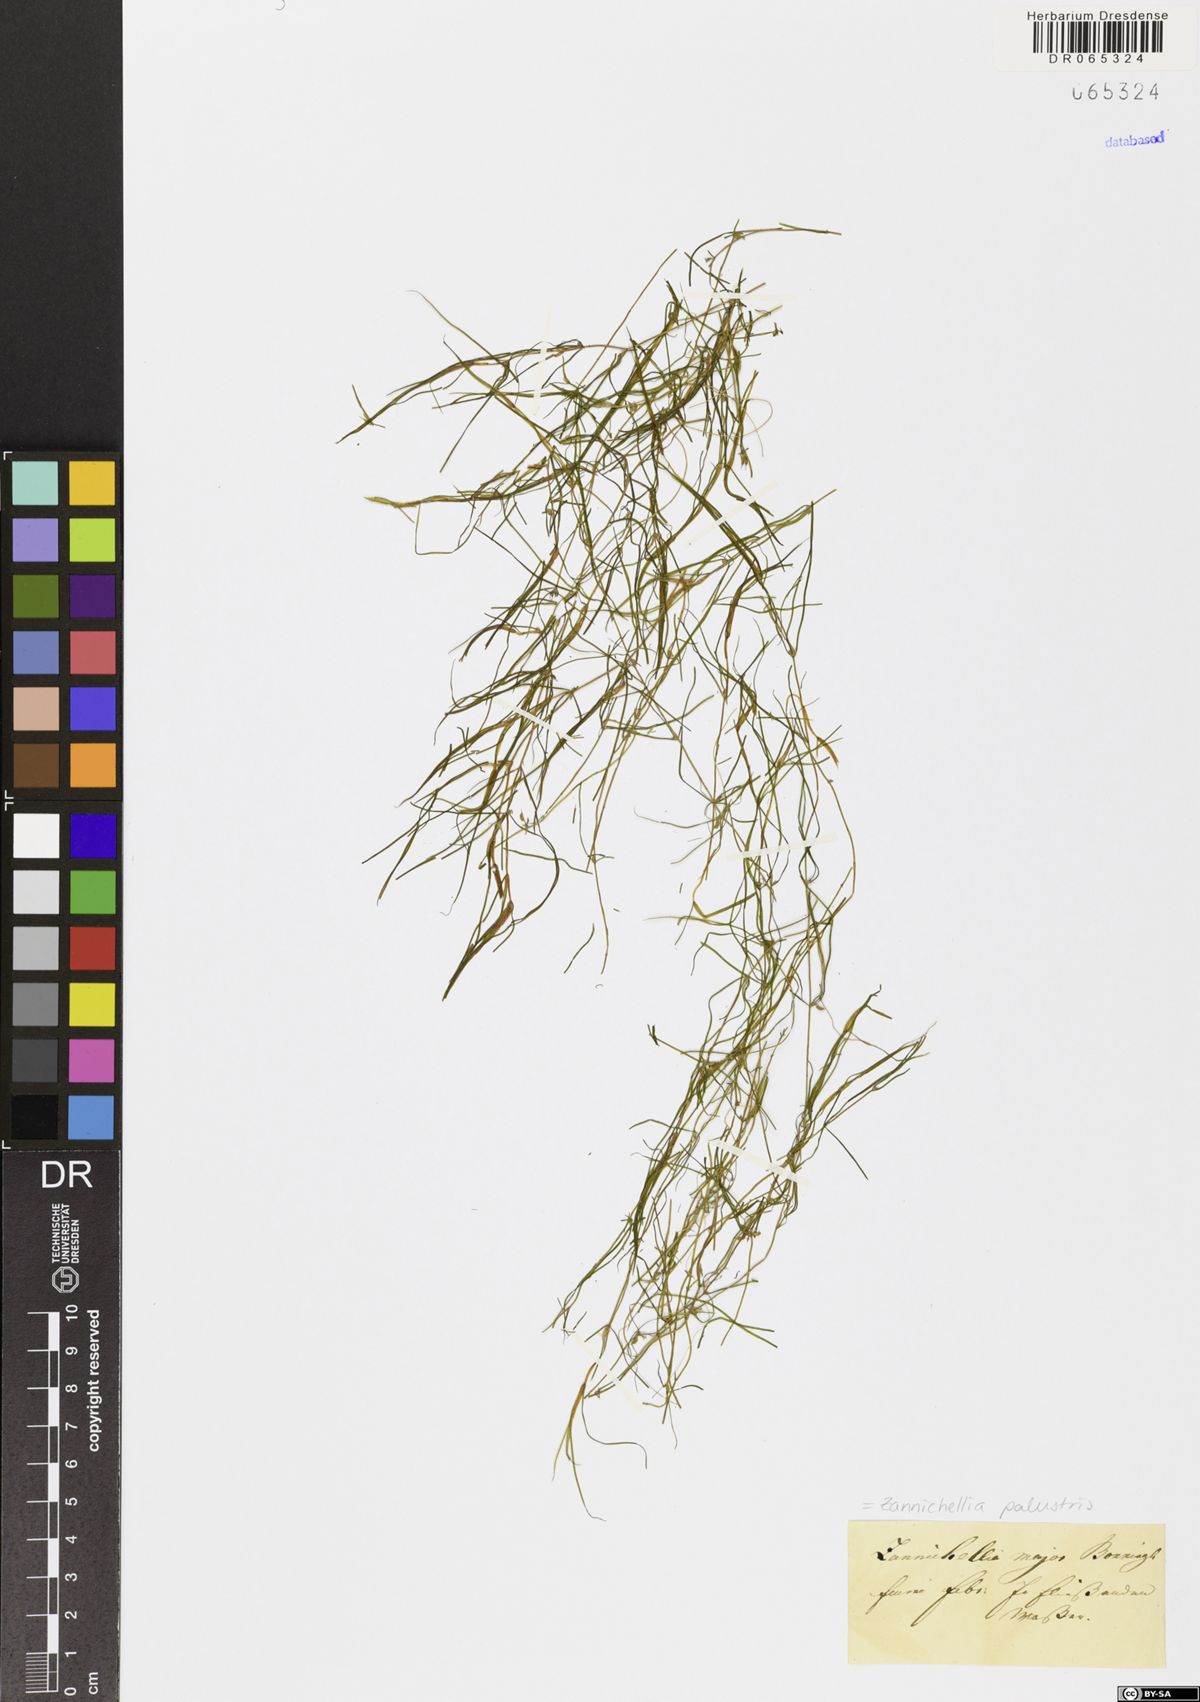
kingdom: Plantae
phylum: Tracheophyta
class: Liliopsida
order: Alismatales
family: Potamogetonaceae
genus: Zannichellia
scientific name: Zannichellia palustris
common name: Horned pondweed
